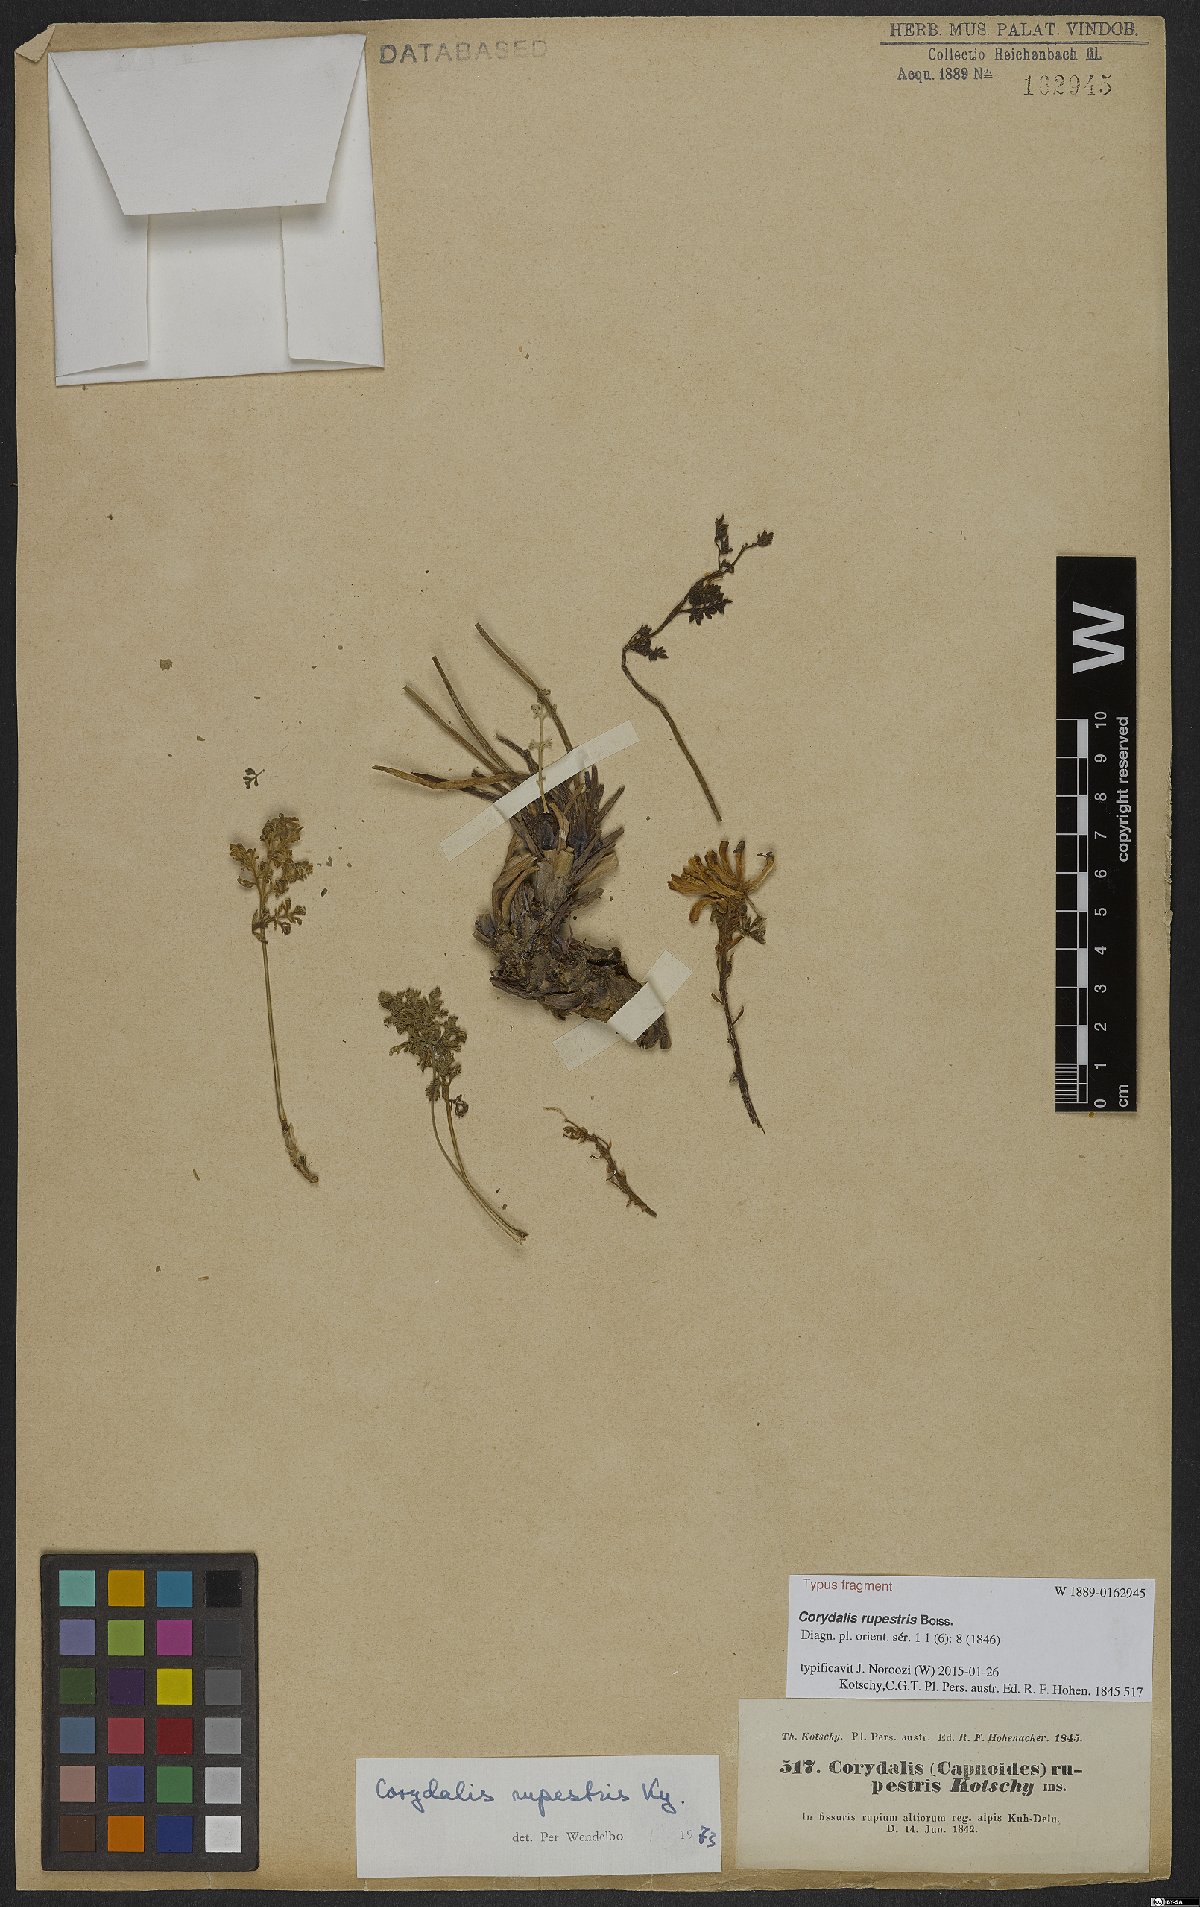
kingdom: Plantae
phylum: Tracheophyta
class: Magnoliopsida
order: Ranunculales
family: Papaveraceae
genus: Corydalis
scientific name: Corydalis rupestris
